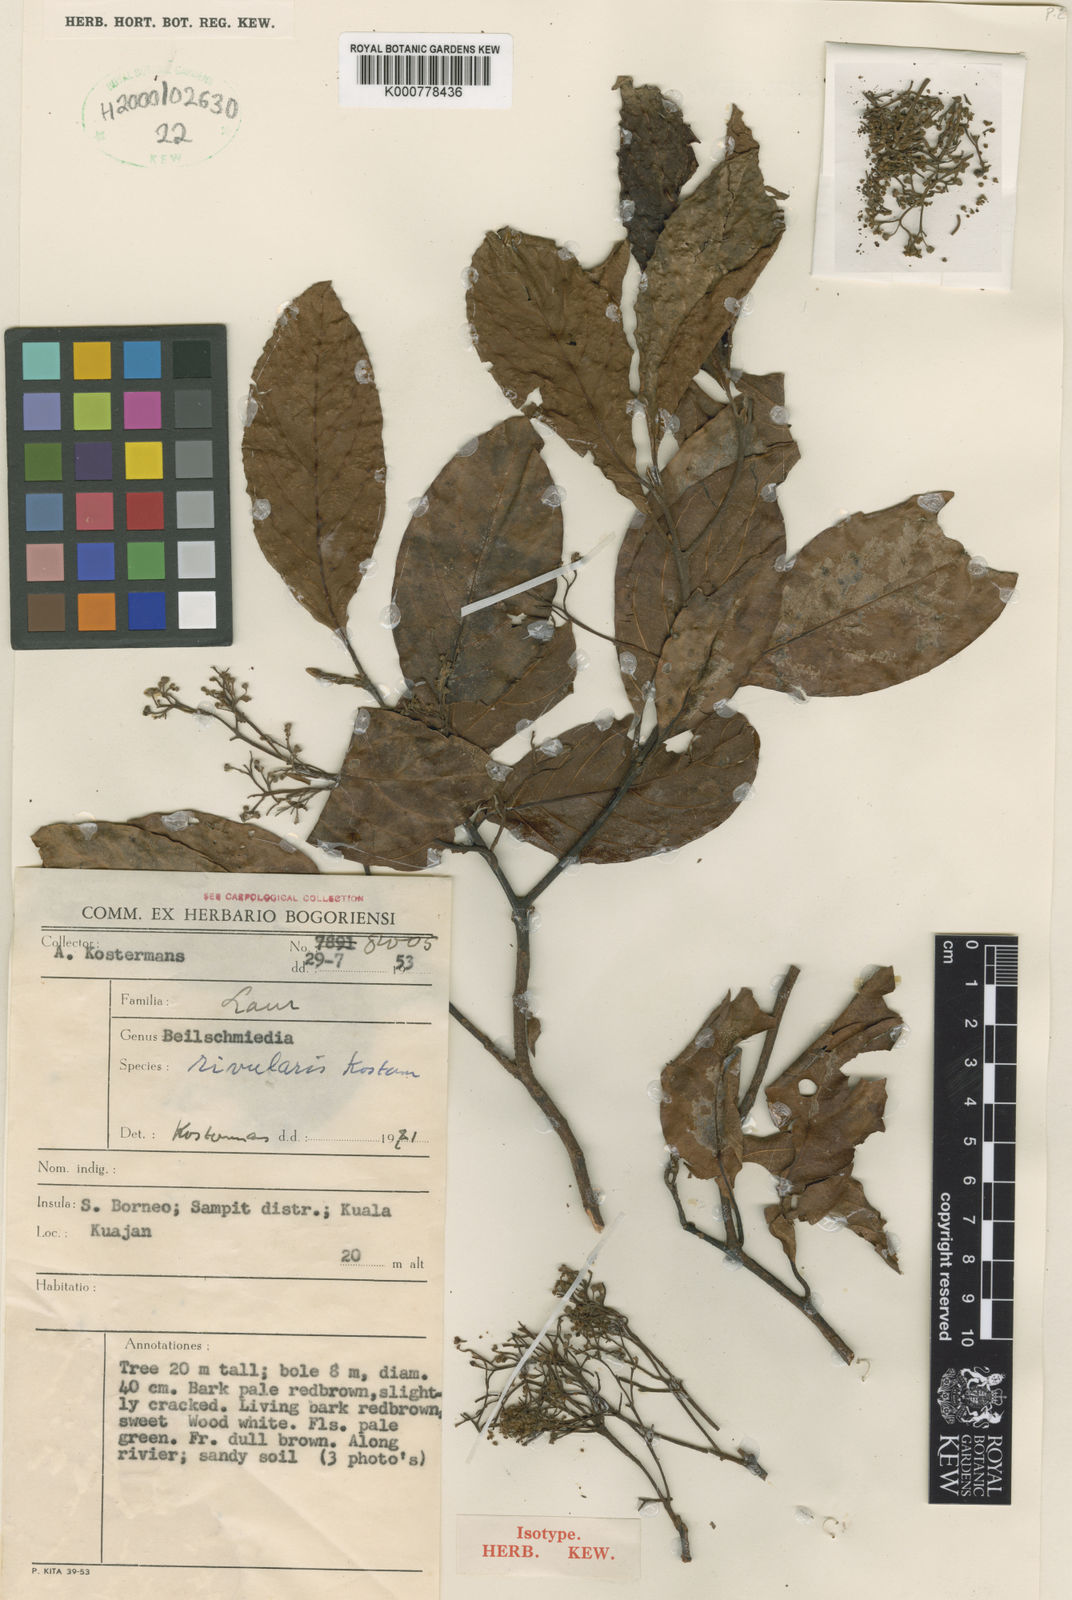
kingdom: Plantae
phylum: Tracheophyta
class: Magnoliopsida
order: Laurales
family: Lauraceae
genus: Beilschmiedia
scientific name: Beilschmiedia rivularis
